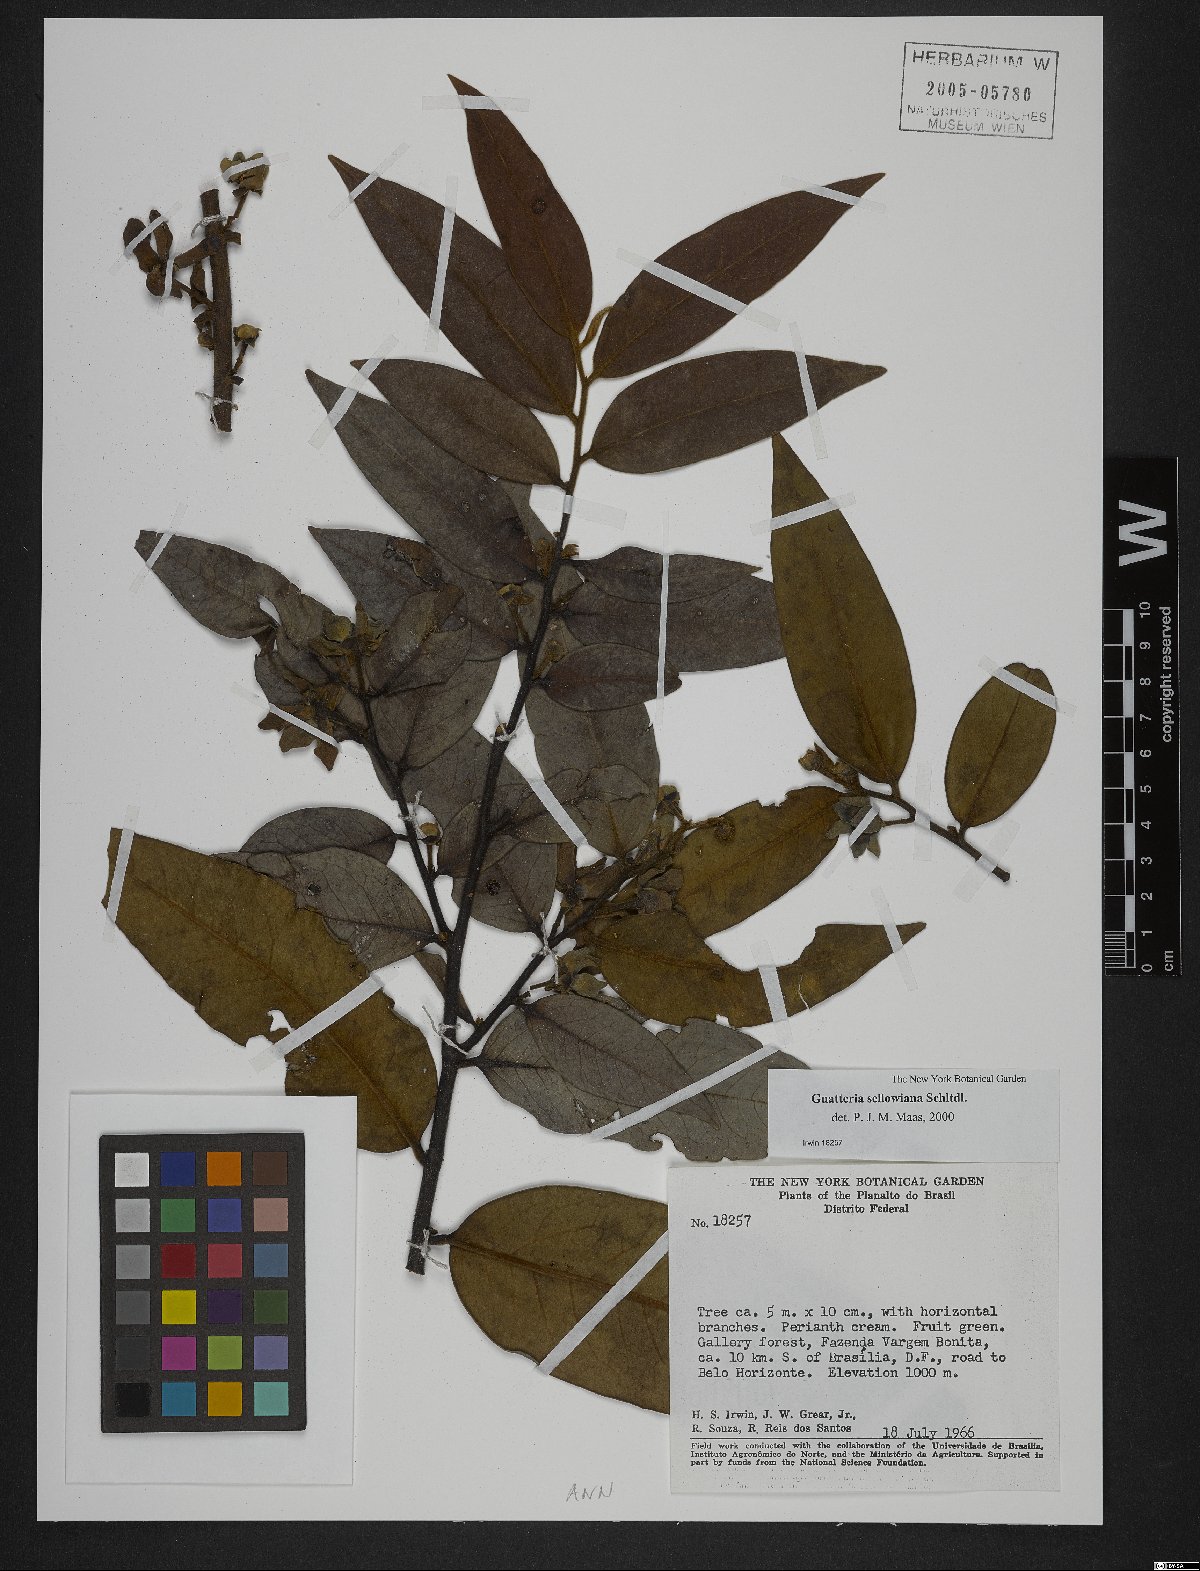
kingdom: Plantae
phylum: Tracheophyta
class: Magnoliopsida
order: Magnoliales
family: Annonaceae
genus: Guatteria
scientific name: Guatteria sellowiana
